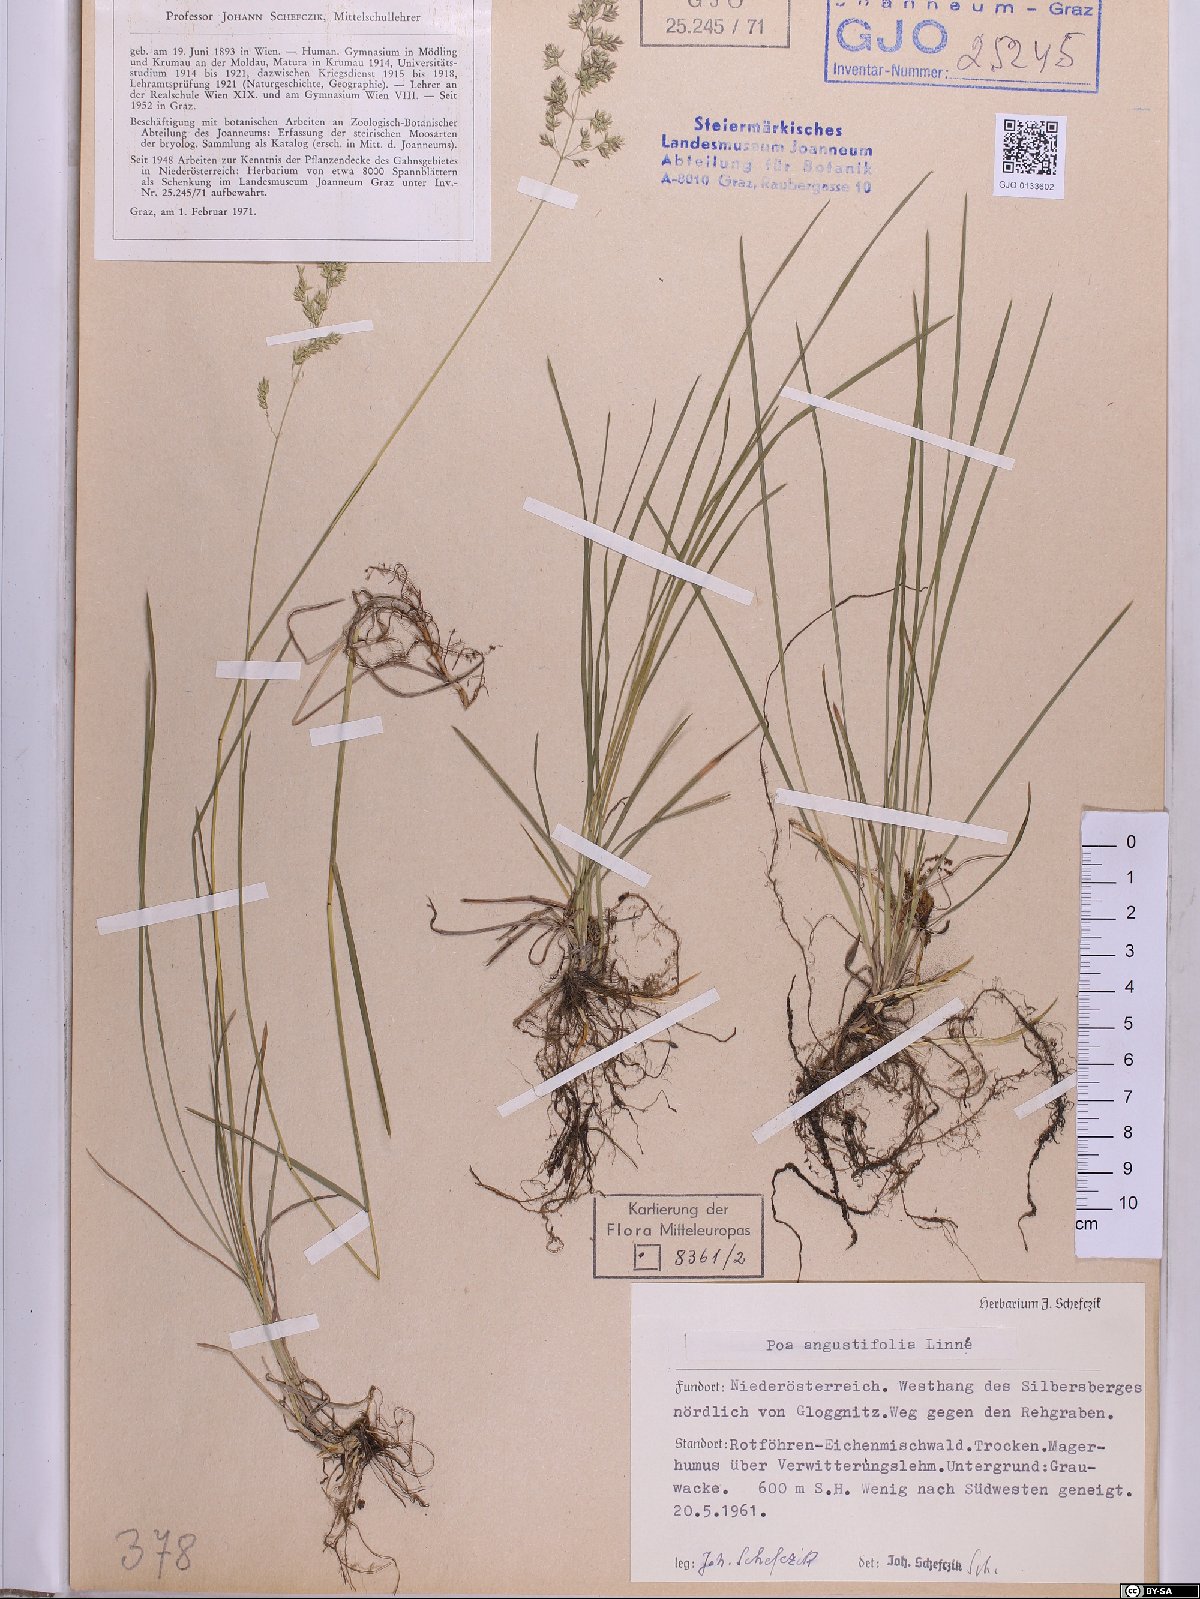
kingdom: Plantae
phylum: Tracheophyta
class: Liliopsida
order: Poales
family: Poaceae
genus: Poa
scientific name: Poa angustifolia
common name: Narrow-leaved meadow-grass
